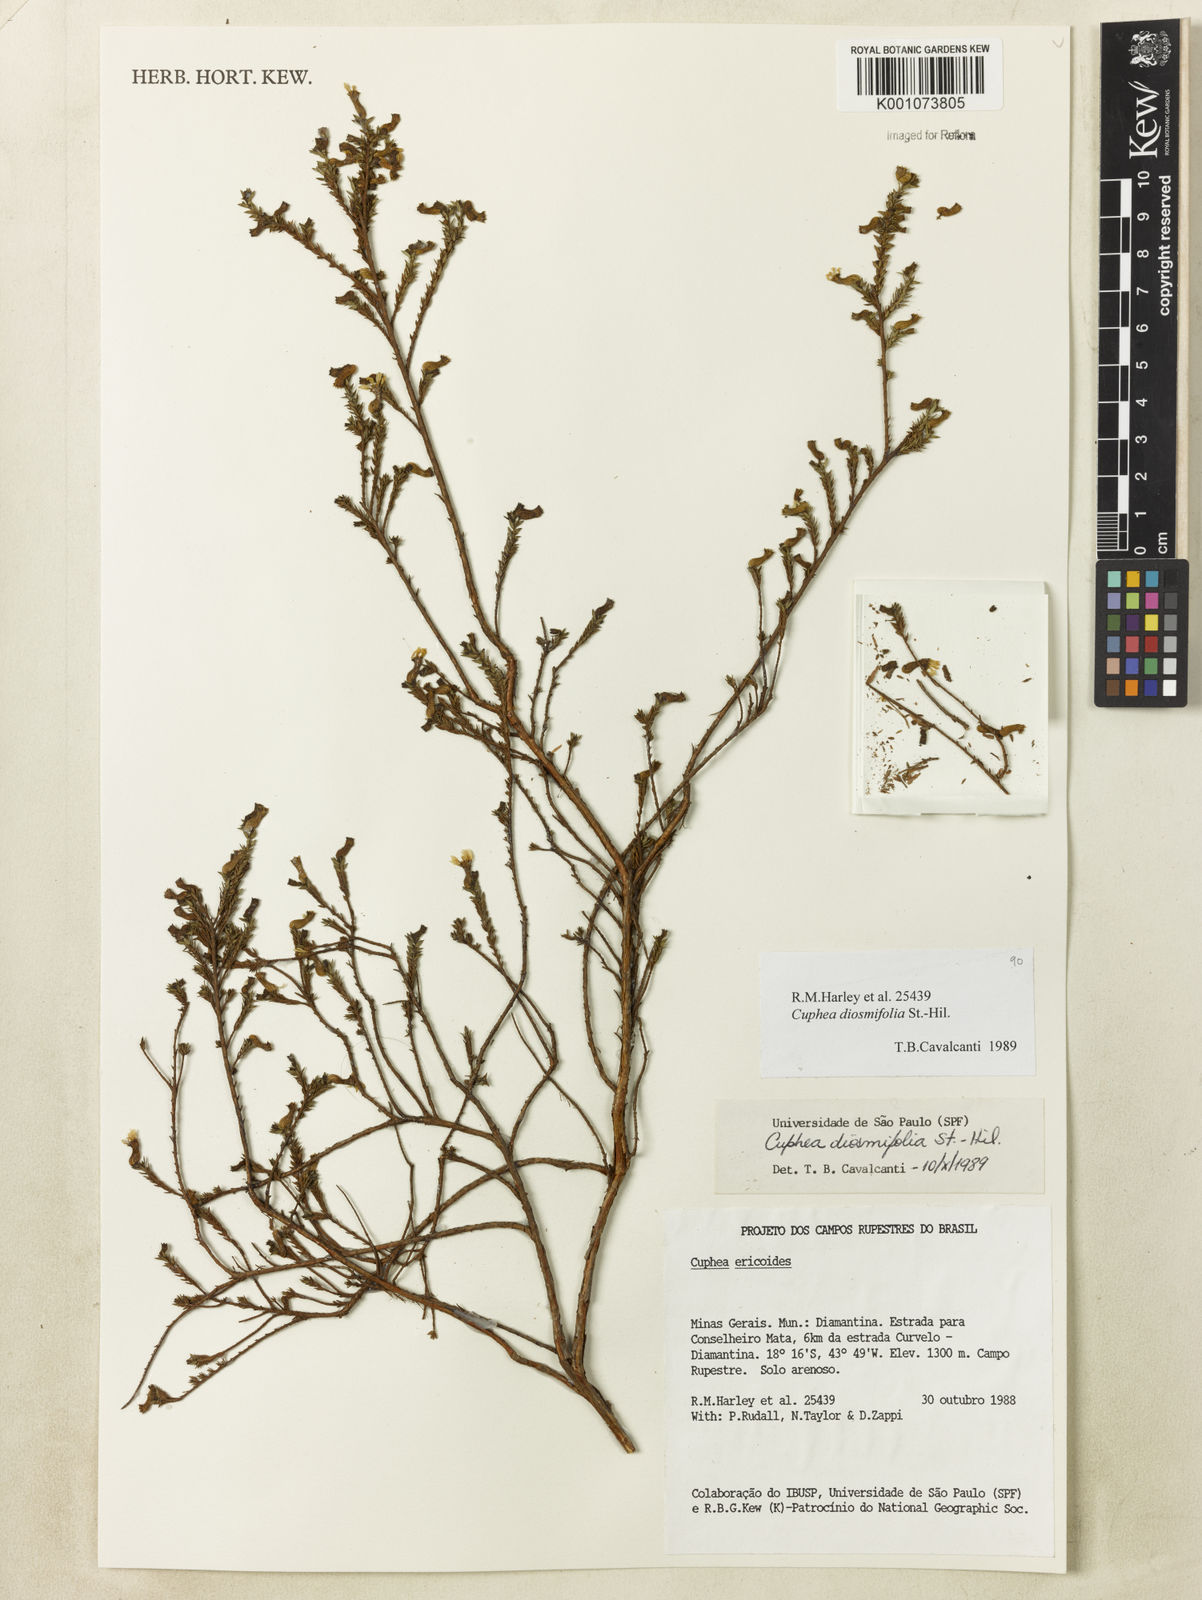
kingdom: Plantae
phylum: Tracheophyta
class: Magnoliopsida
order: Myrtales
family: Lythraceae
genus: Cuphea
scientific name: Cuphea diosmifolia
